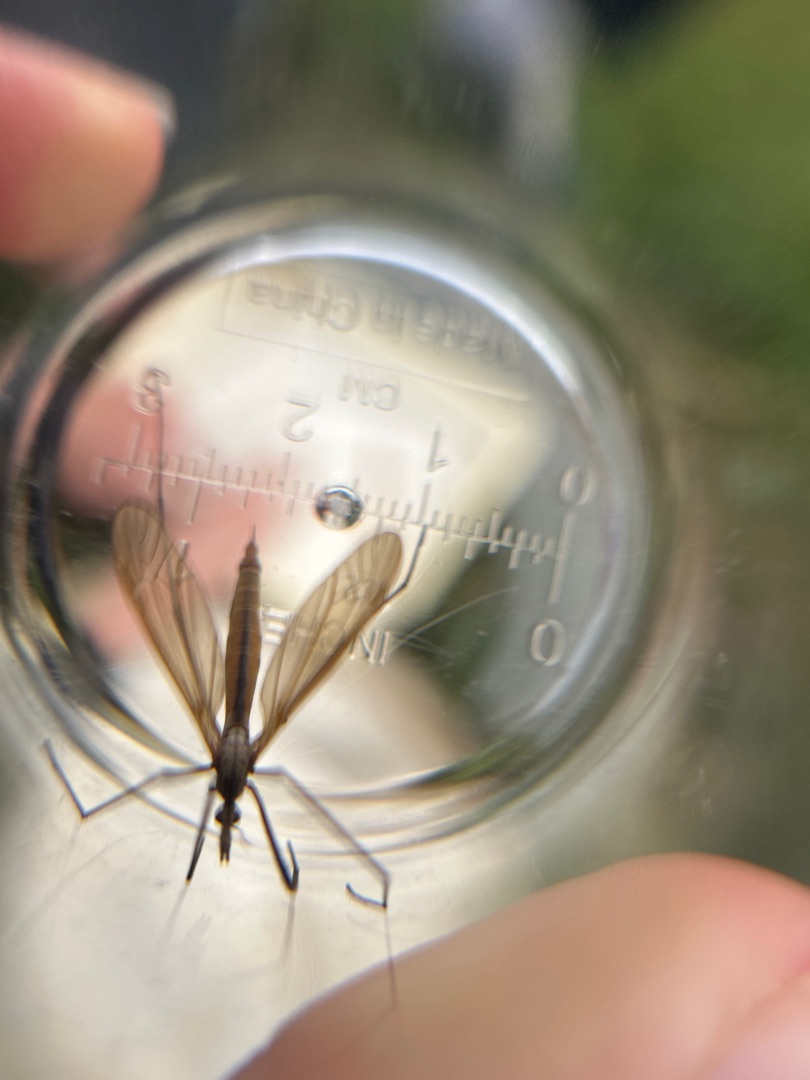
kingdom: Animalia
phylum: Arthropoda
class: Insecta
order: Diptera
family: Tipulidae
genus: Tipula
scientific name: Tipula luteipennis
